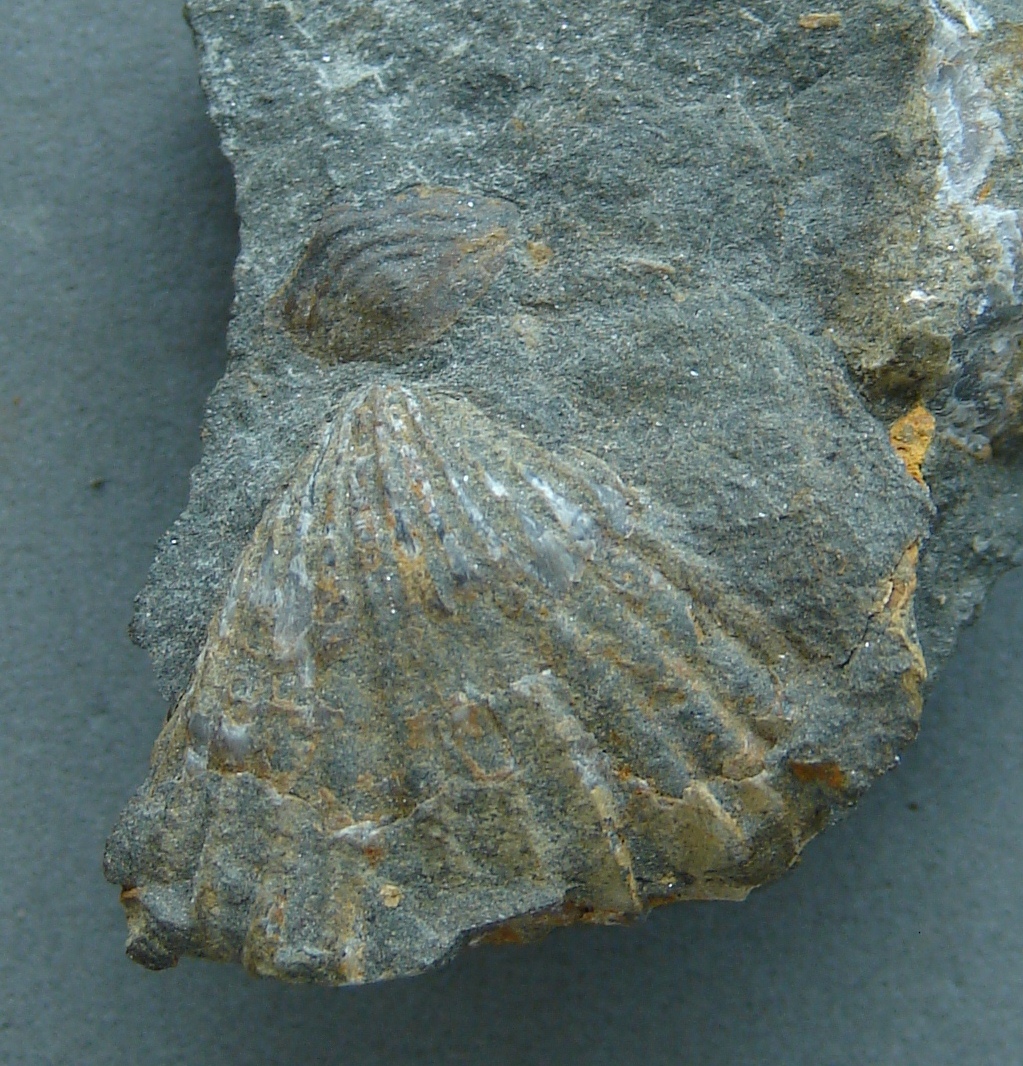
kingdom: Animalia
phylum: Arthropoda
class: Trilobita
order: Phacopida
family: Acastidae
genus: Acastoides
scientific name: Acastoides
